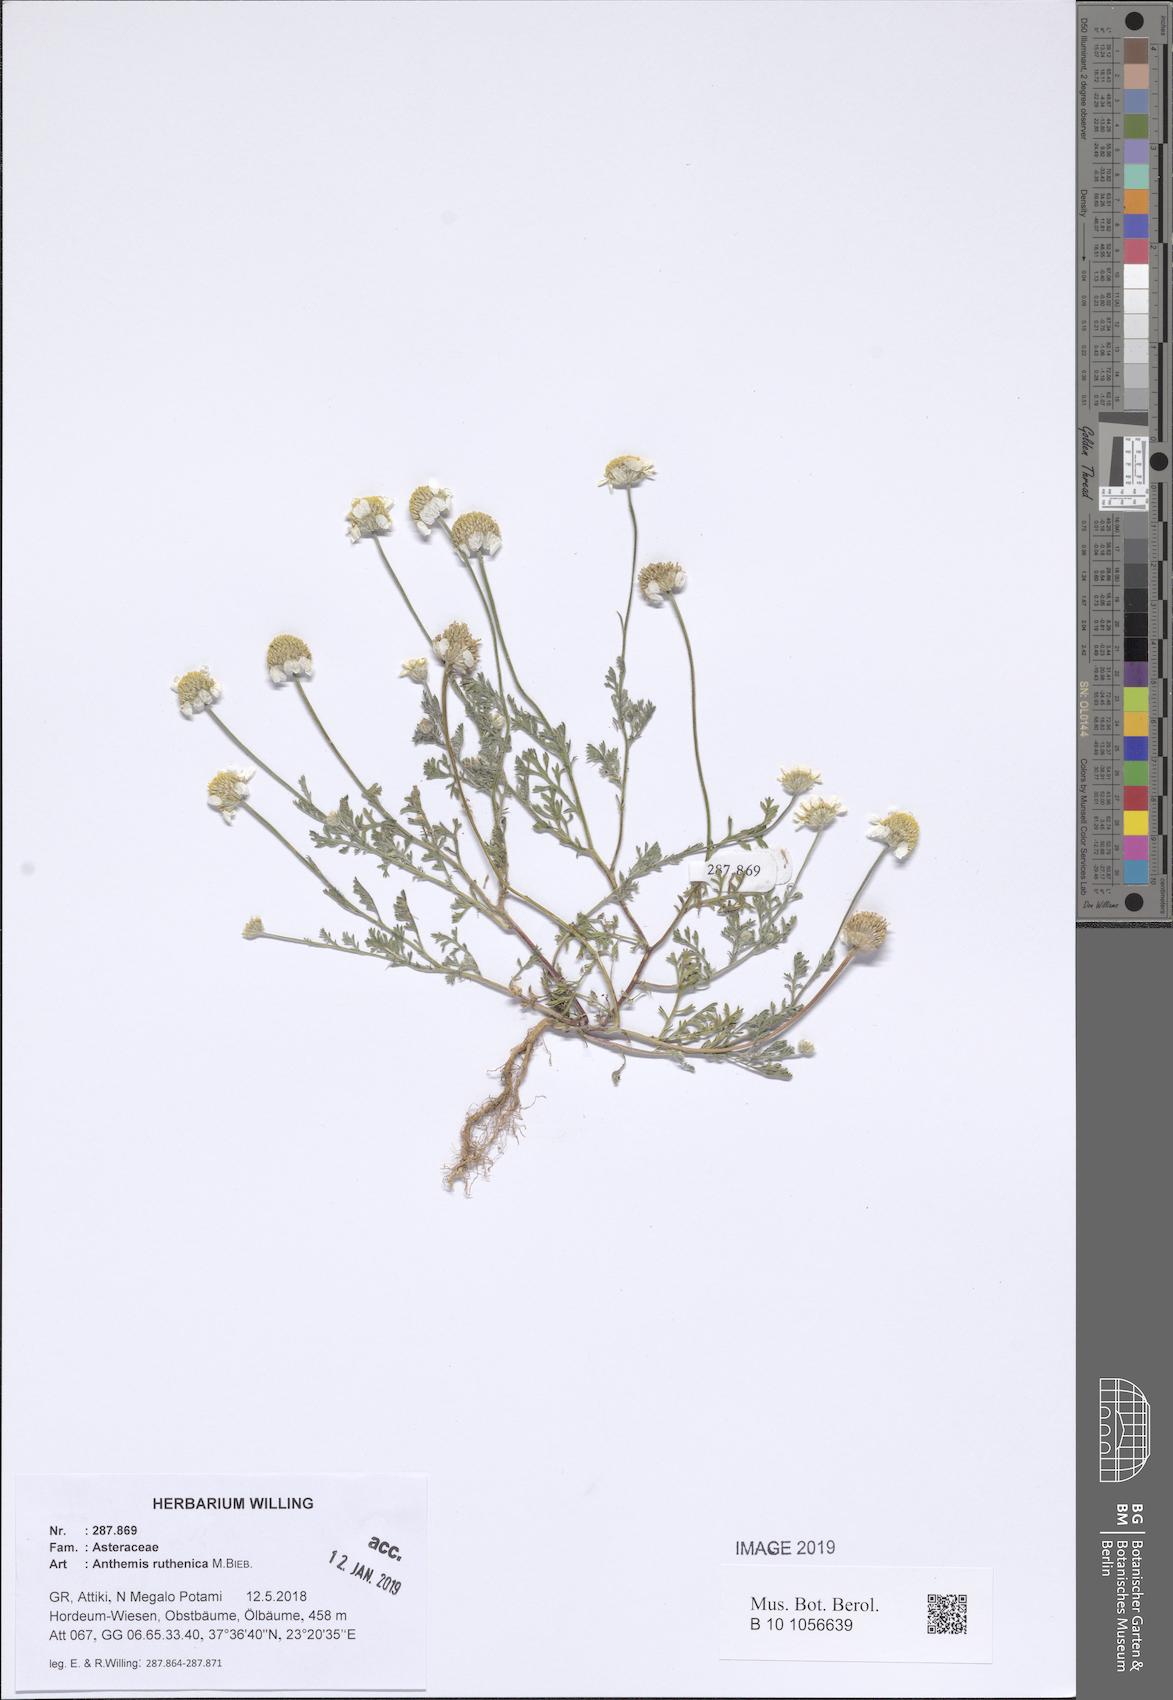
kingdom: Plantae
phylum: Tracheophyta
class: Magnoliopsida
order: Asterales
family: Asteraceae
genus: Anthemis
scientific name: Anthemis ruthenica
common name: Eastern chamomile
